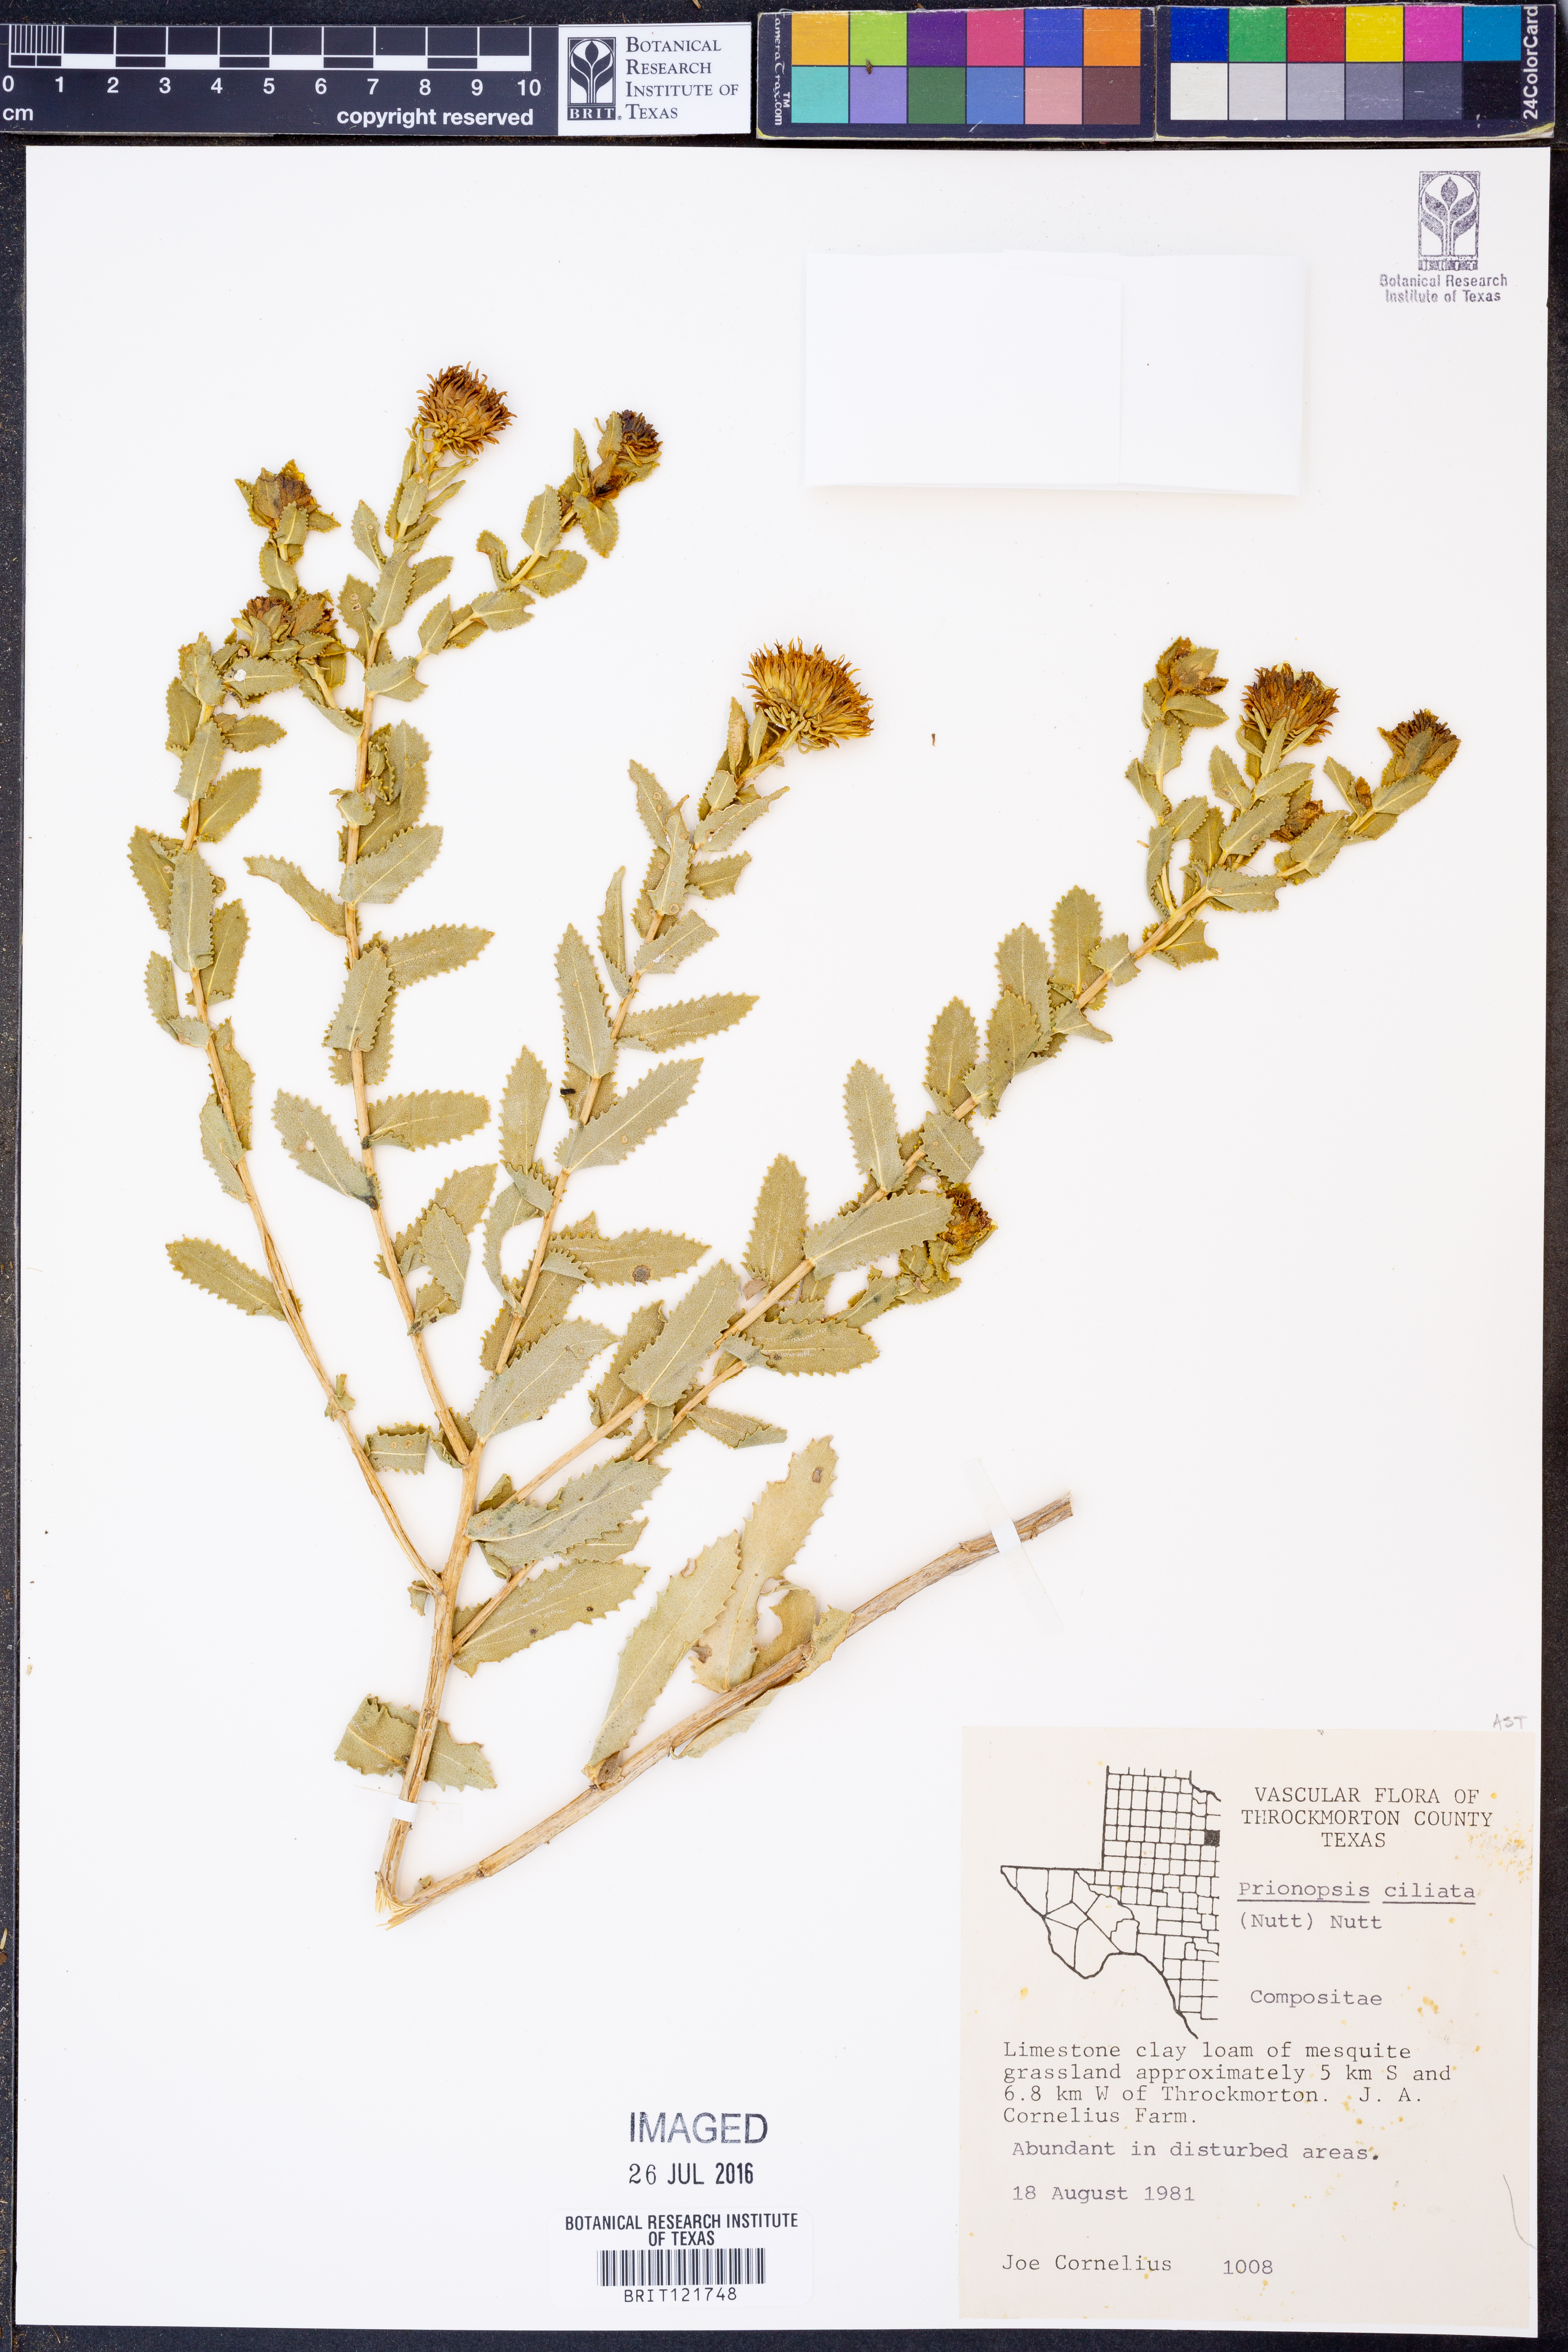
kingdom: Plantae
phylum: Tracheophyta
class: Magnoliopsida
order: Asterales
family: Asteraceae
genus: Grindelia
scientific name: Grindelia ciliata
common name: Goldenweed
